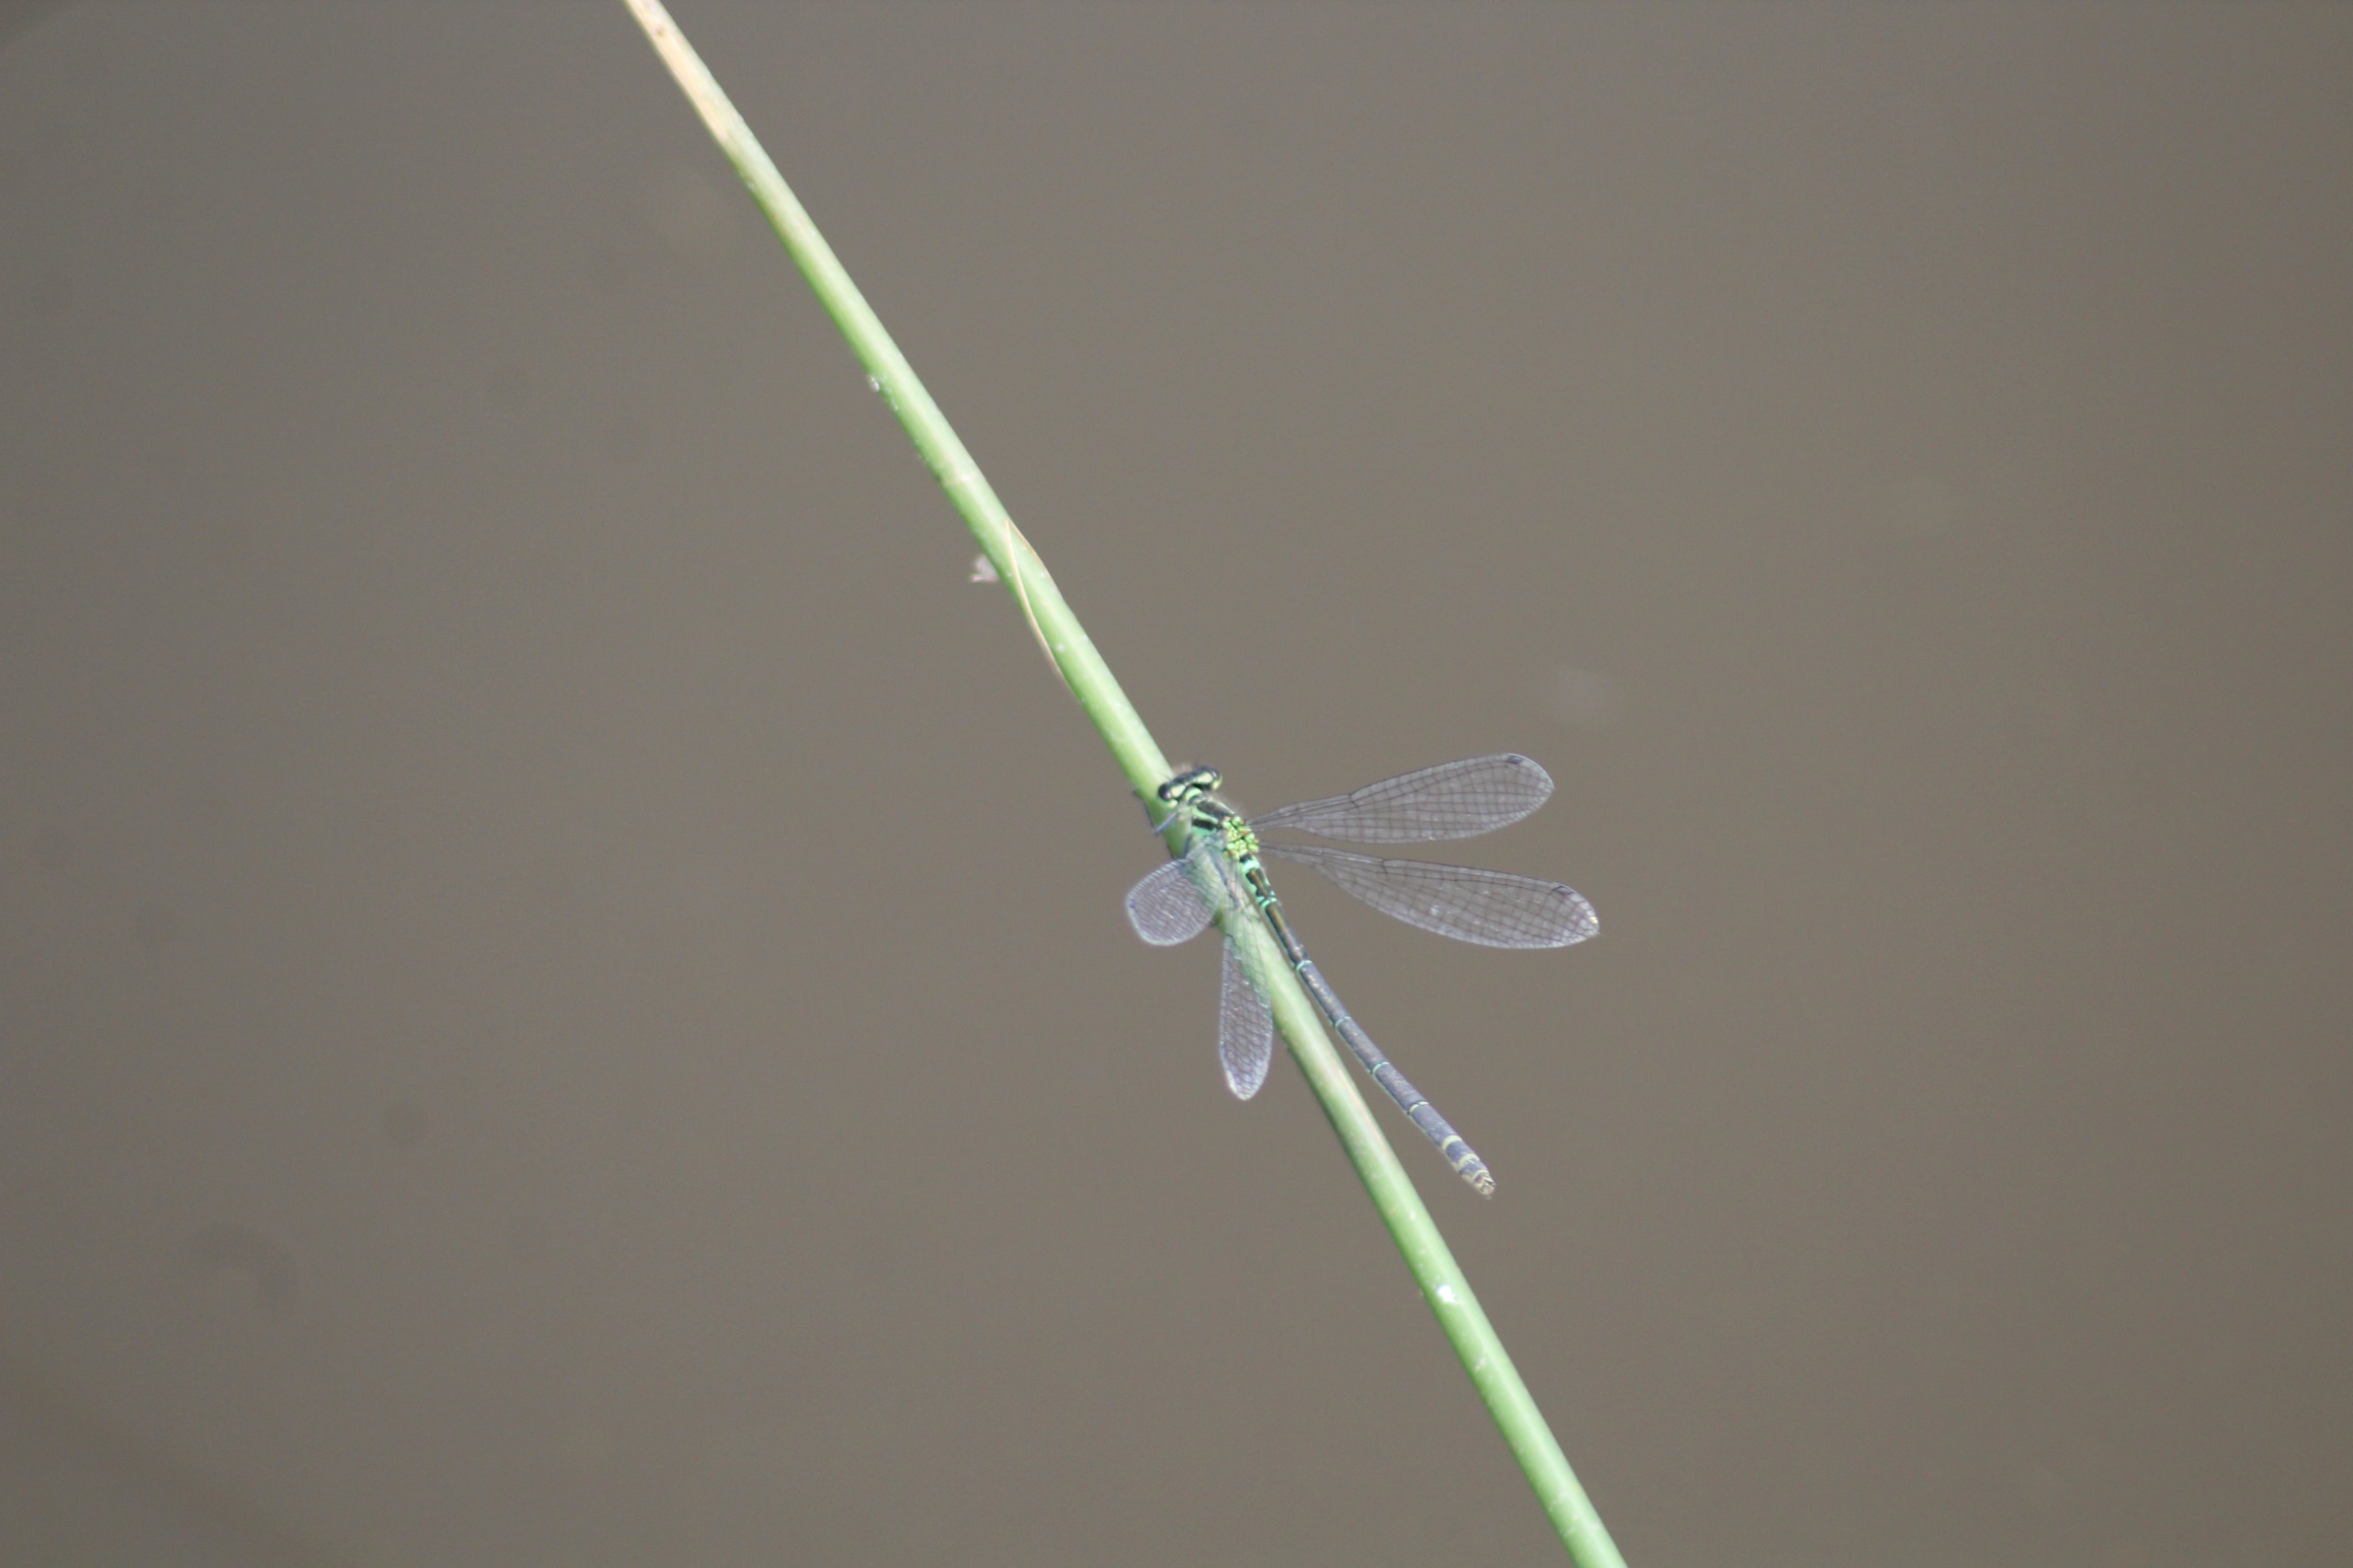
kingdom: Animalia
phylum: Arthropoda
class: Insecta
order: Odonata
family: Coenagrionidae
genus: Coenagrion
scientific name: Coenagrion puella
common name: Hestesko-vandnymfe
